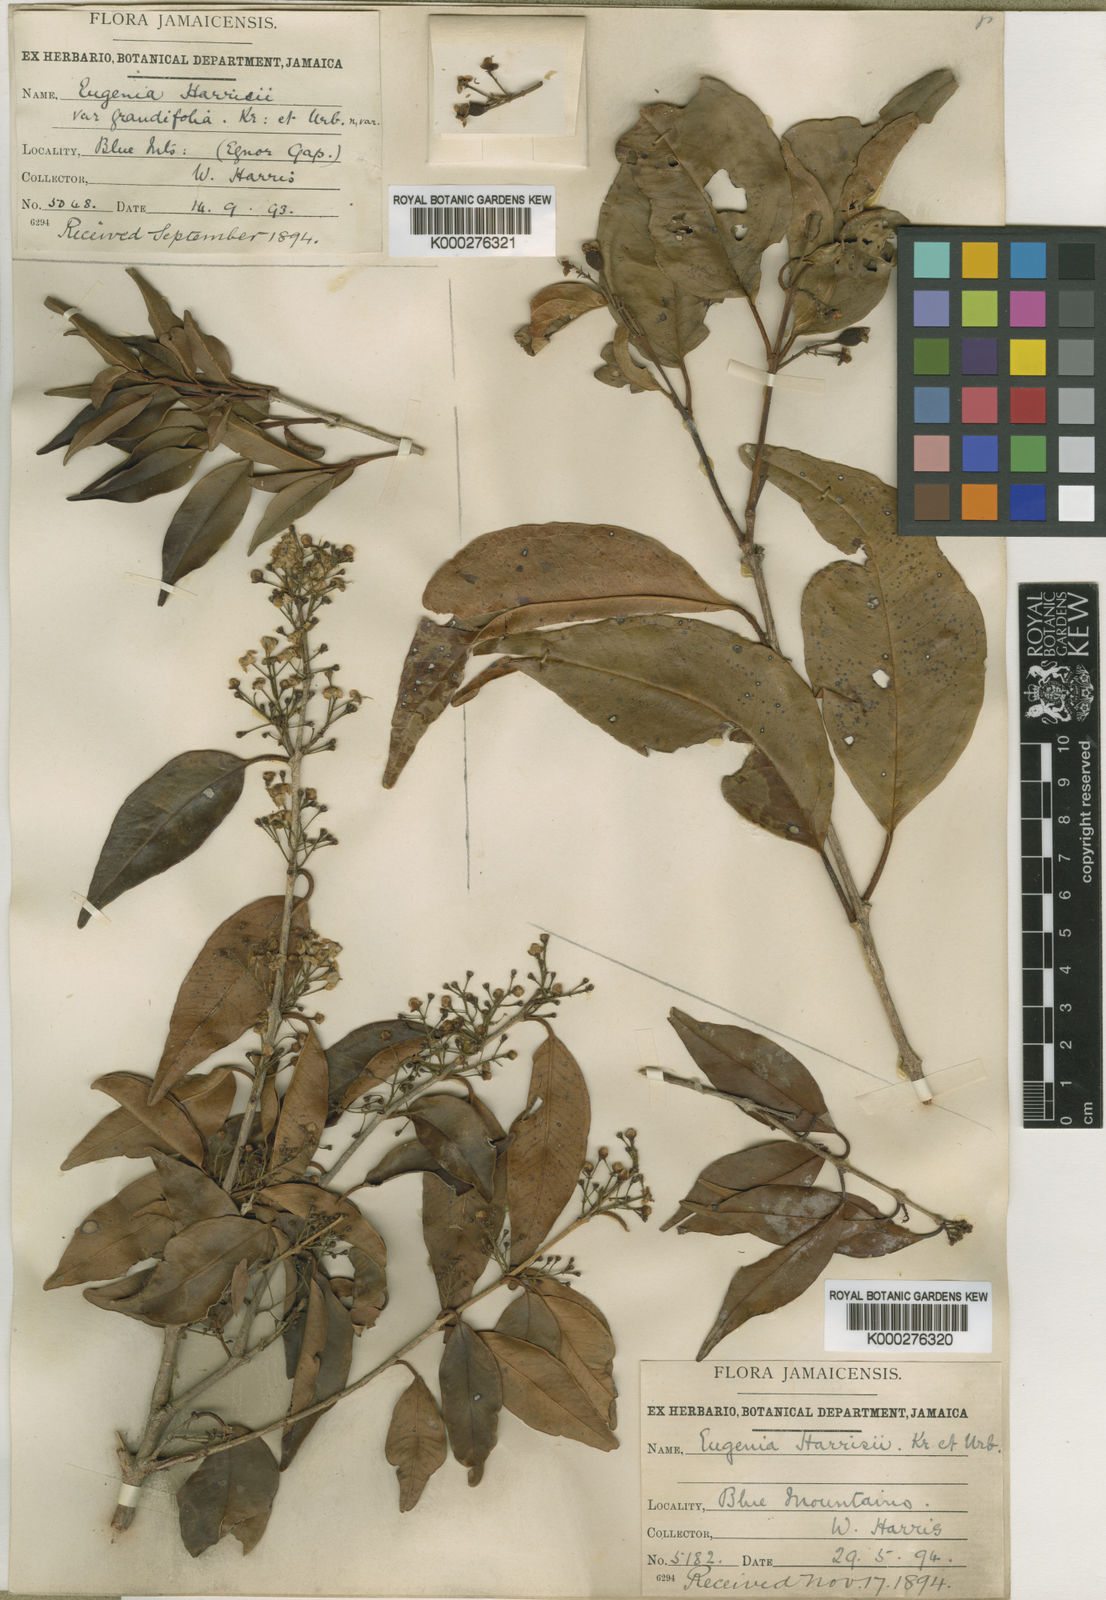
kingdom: Plantae
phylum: Tracheophyta
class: Magnoliopsida
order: Myrtales
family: Myrtaceae
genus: Eugenia
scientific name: Eugenia harrisii
